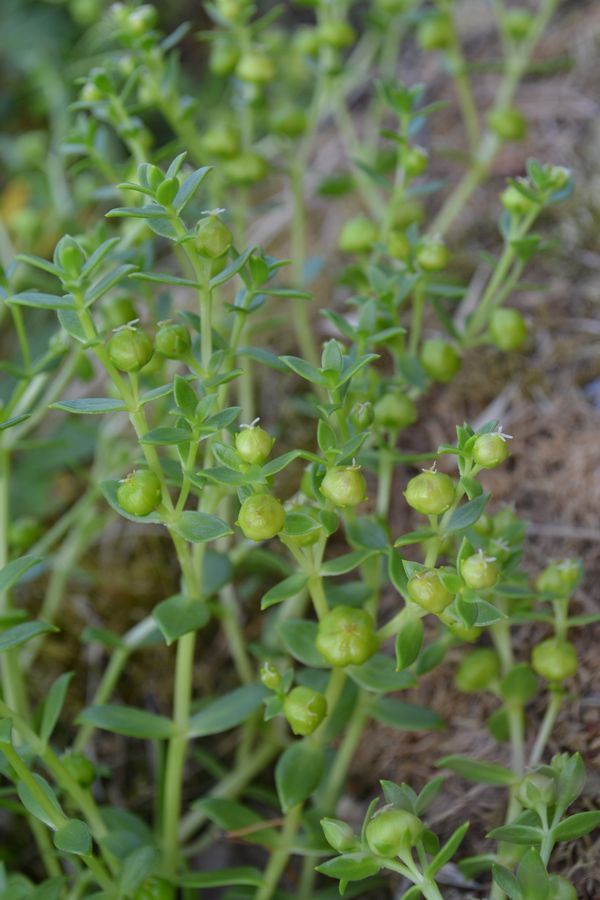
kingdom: Plantae
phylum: Tracheophyta
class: Magnoliopsida
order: Caryophyllales
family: Caryophyllaceae
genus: Honckenya
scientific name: Honckenya peploides
